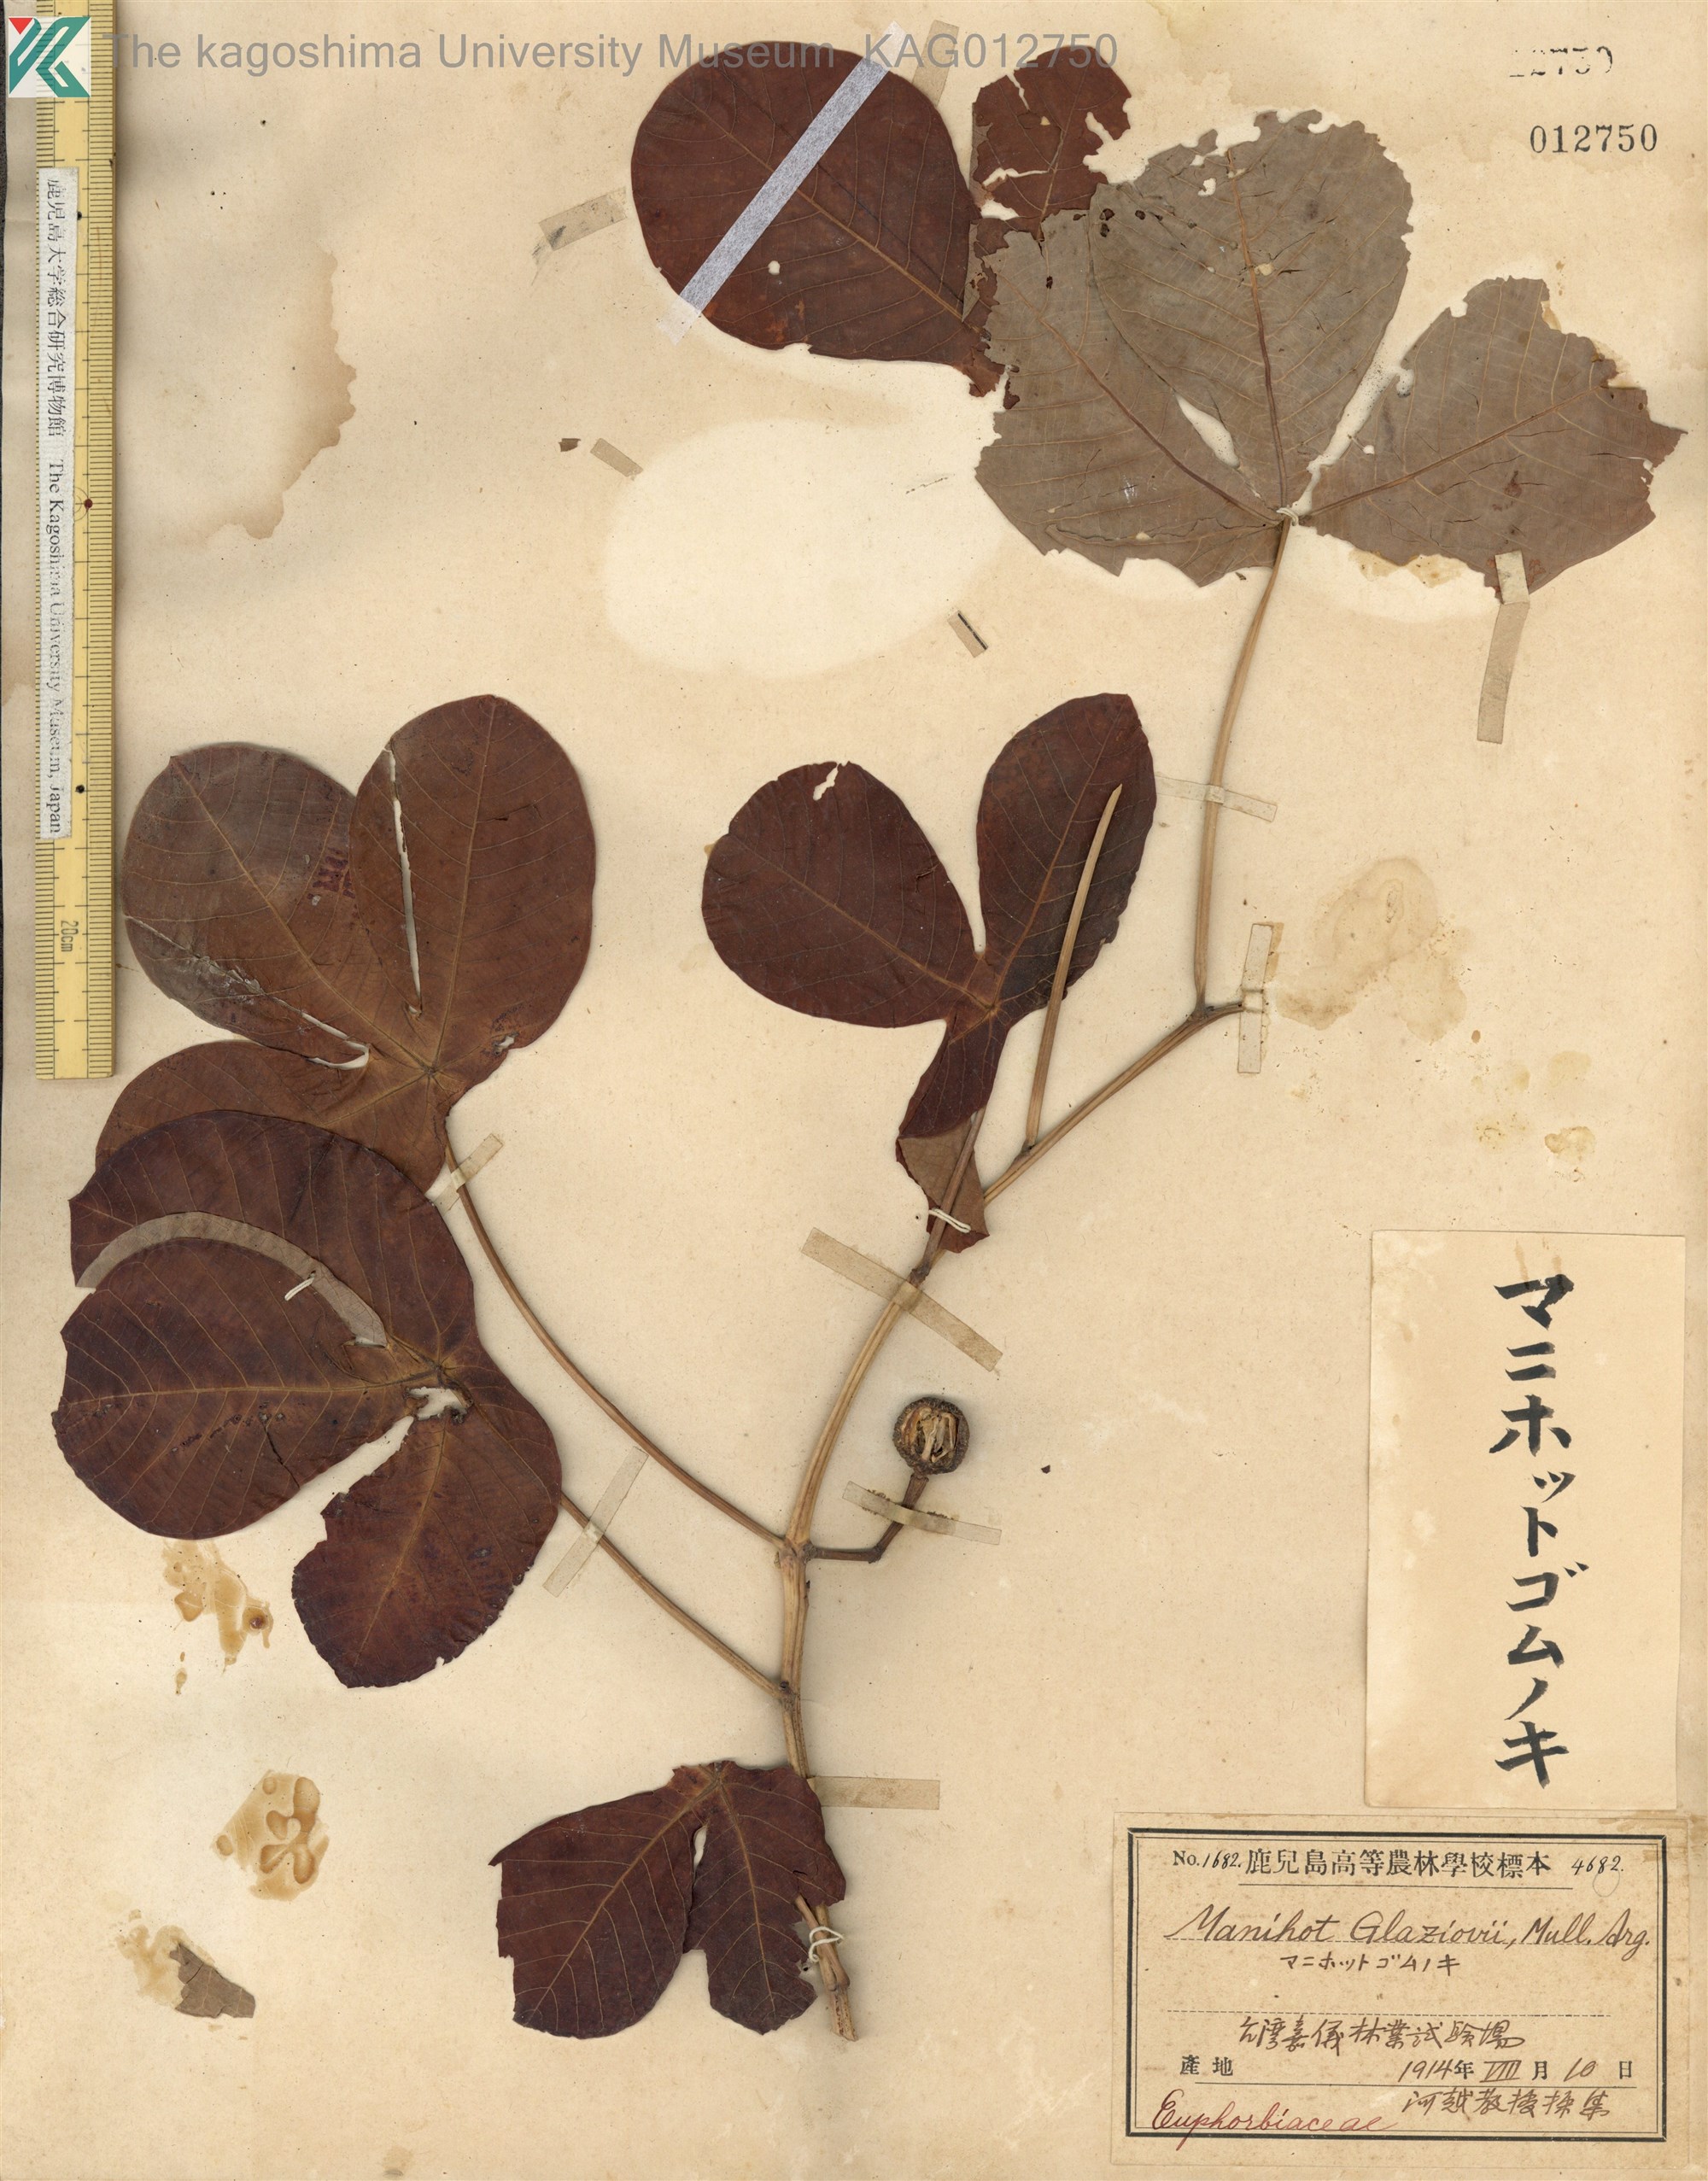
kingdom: Plantae
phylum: Tracheophyta
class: Magnoliopsida
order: Malpighiales
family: Euphorbiaceae
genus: Manihot
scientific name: Manihot carthagenensis
